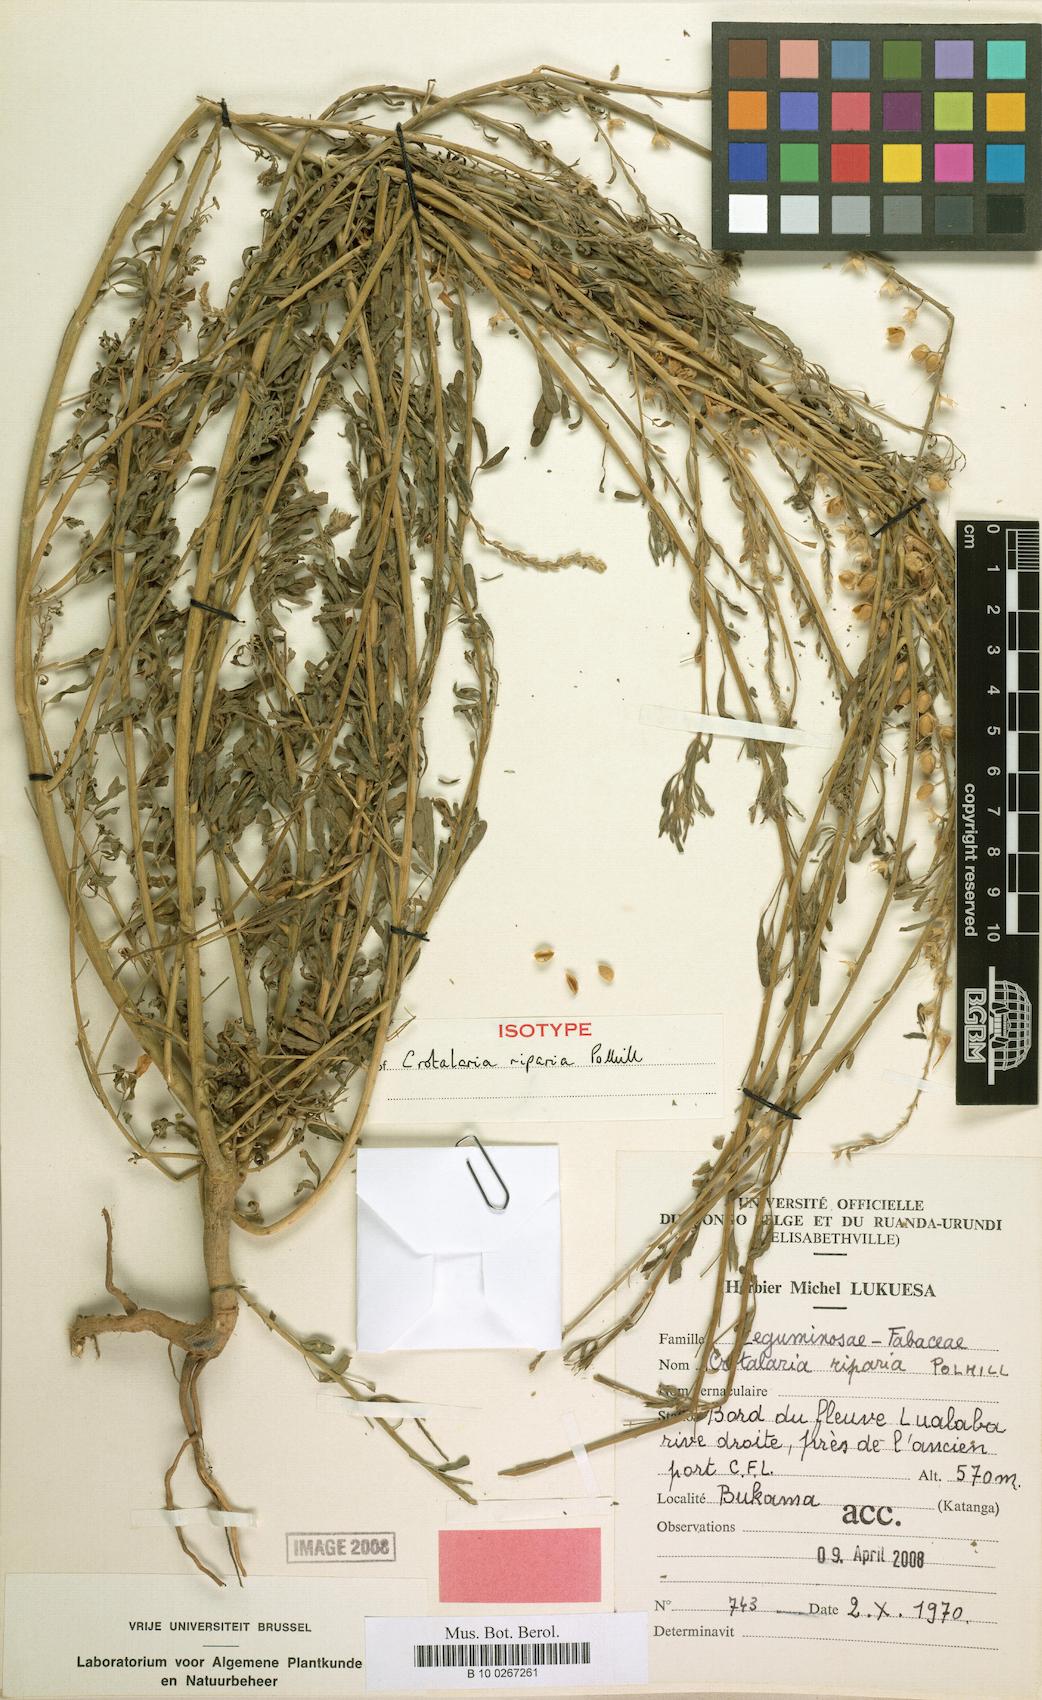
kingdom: Plantae
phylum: Tracheophyta
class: Magnoliopsida
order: Fabales
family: Fabaceae
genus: Crotalaria
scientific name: Crotalaria riparia
